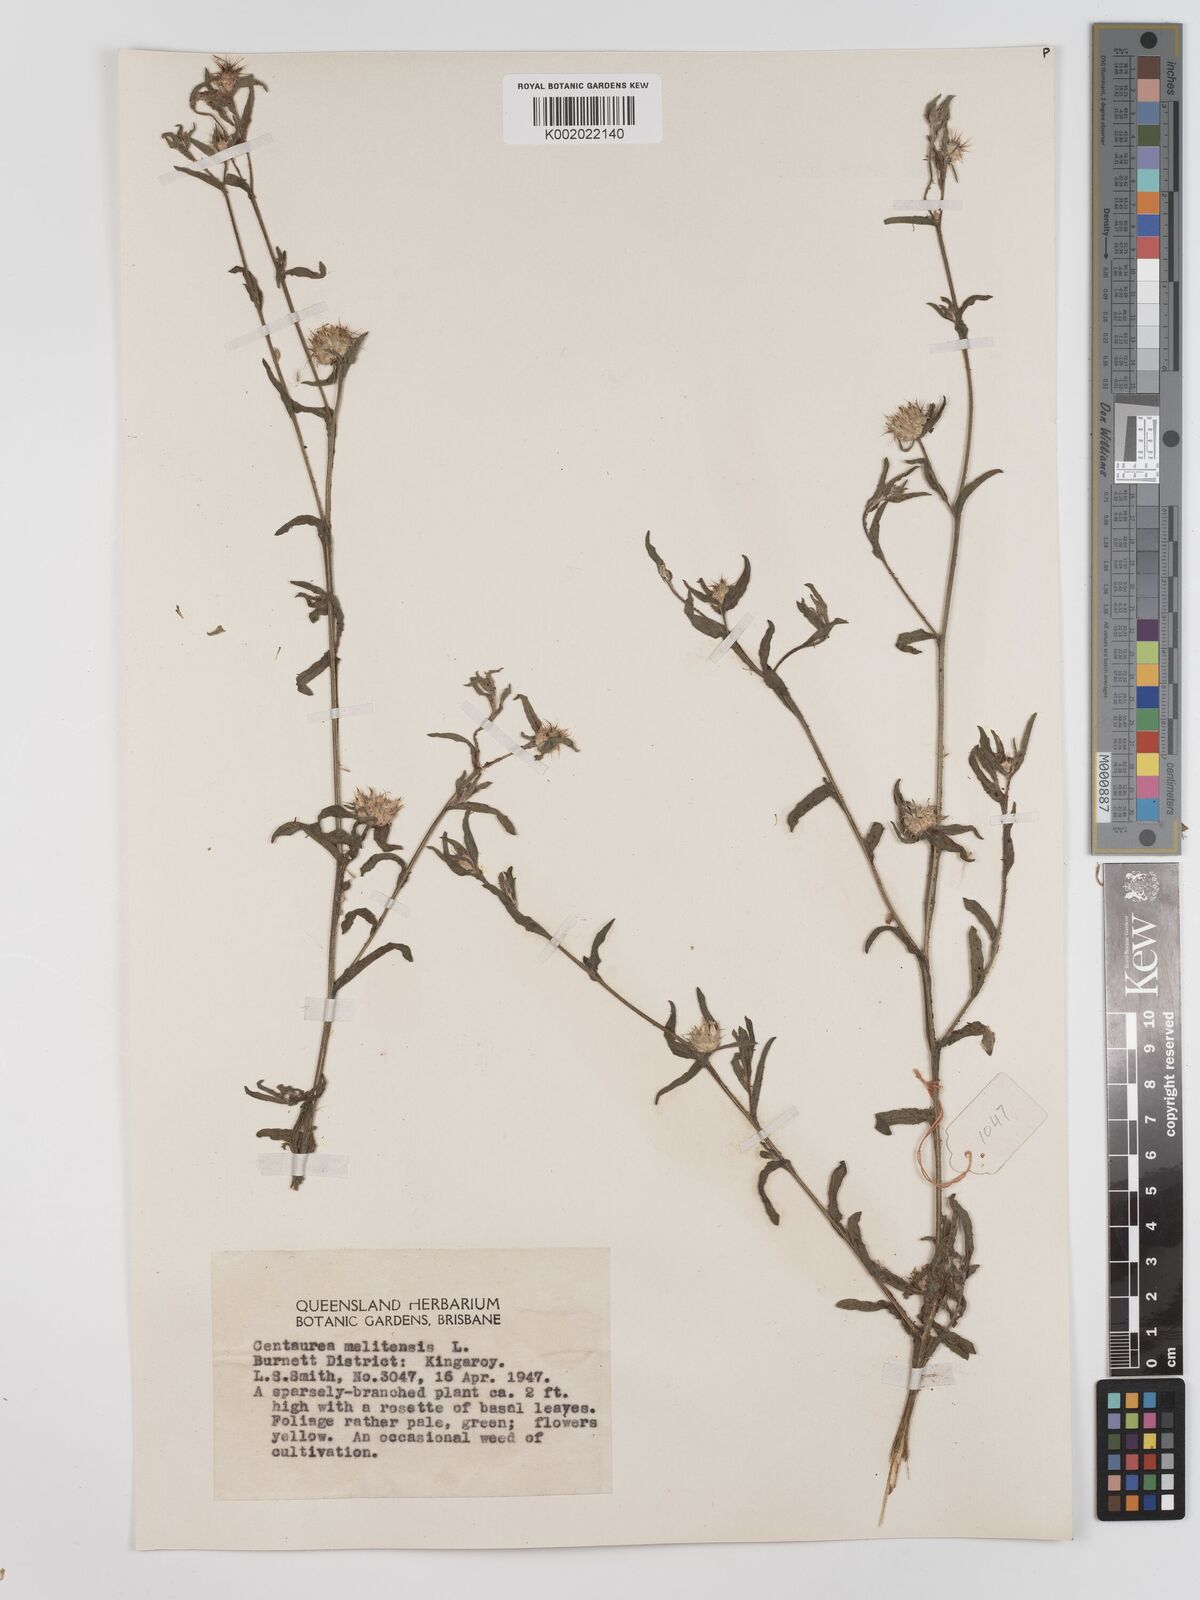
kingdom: Plantae
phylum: Tracheophyta
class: Magnoliopsida
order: Asterales
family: Asteraceae
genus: Centaurea
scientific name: Centaurea melitensis
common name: Maltese star-thistle
